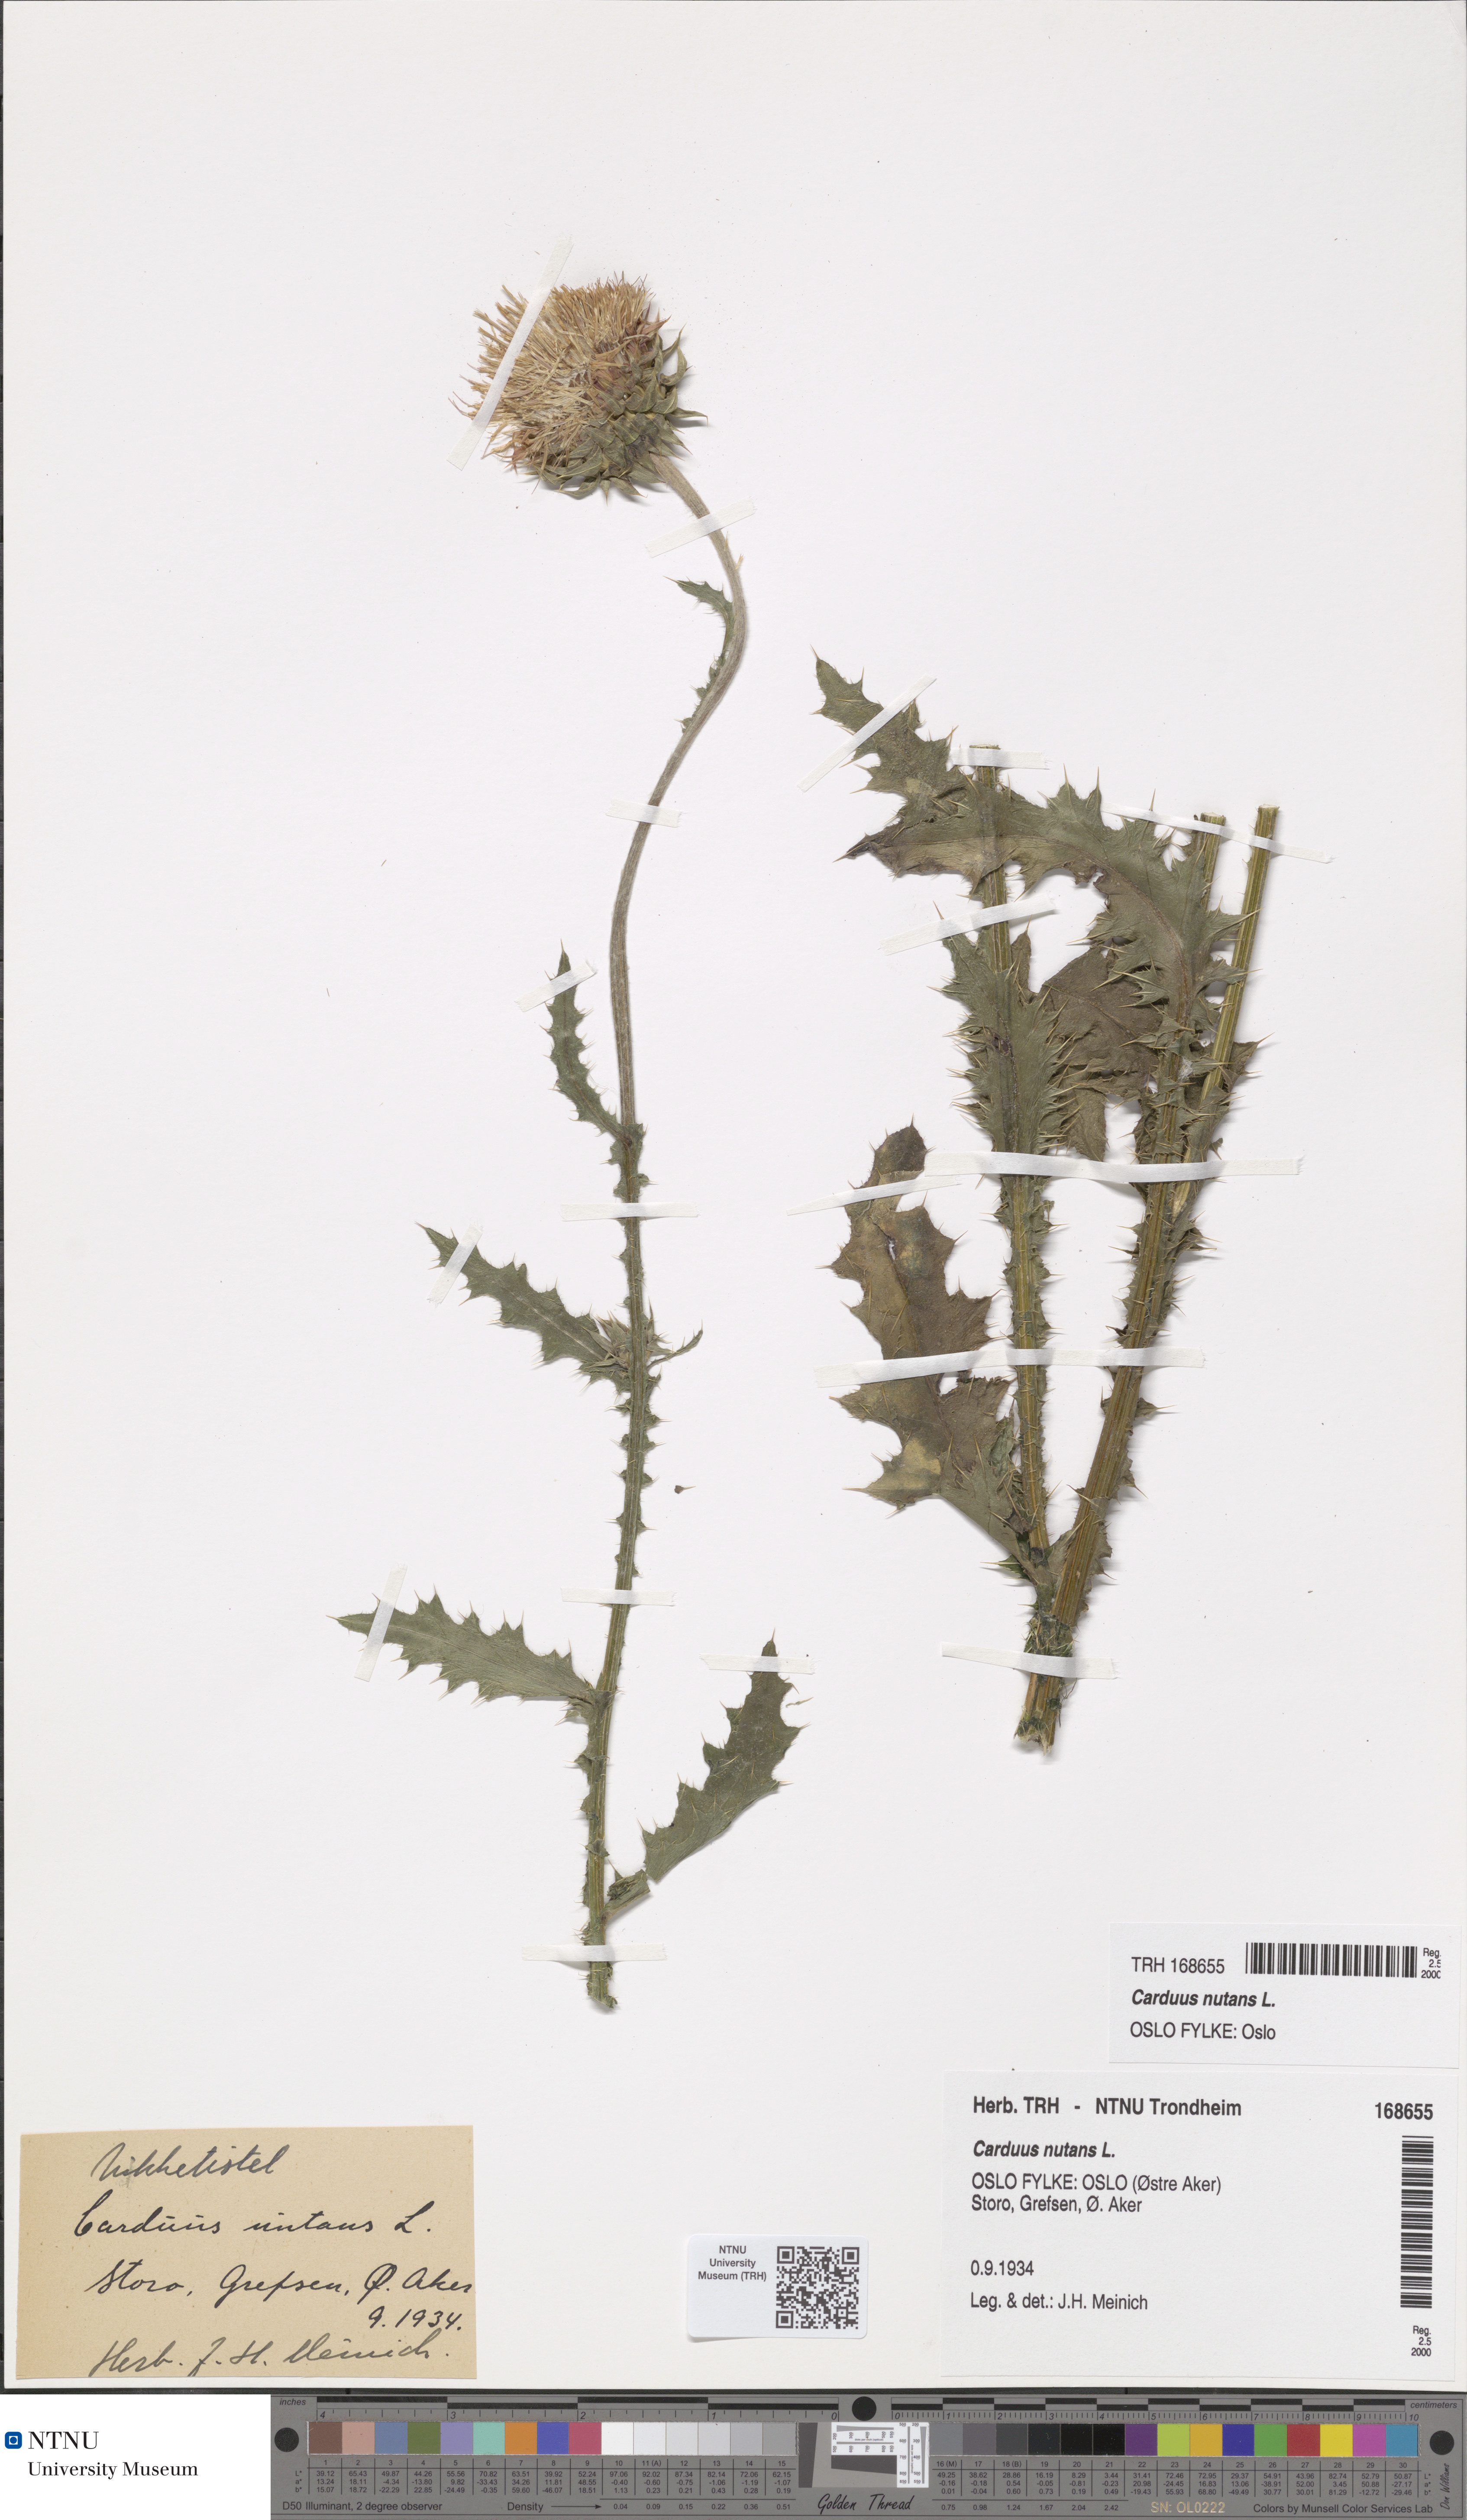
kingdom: Plantae
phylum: Tracheophyta
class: Magnoliopsida
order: Asterales
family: Asteraceae
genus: Carduus
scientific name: Carduus nutans
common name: Musk thistle
